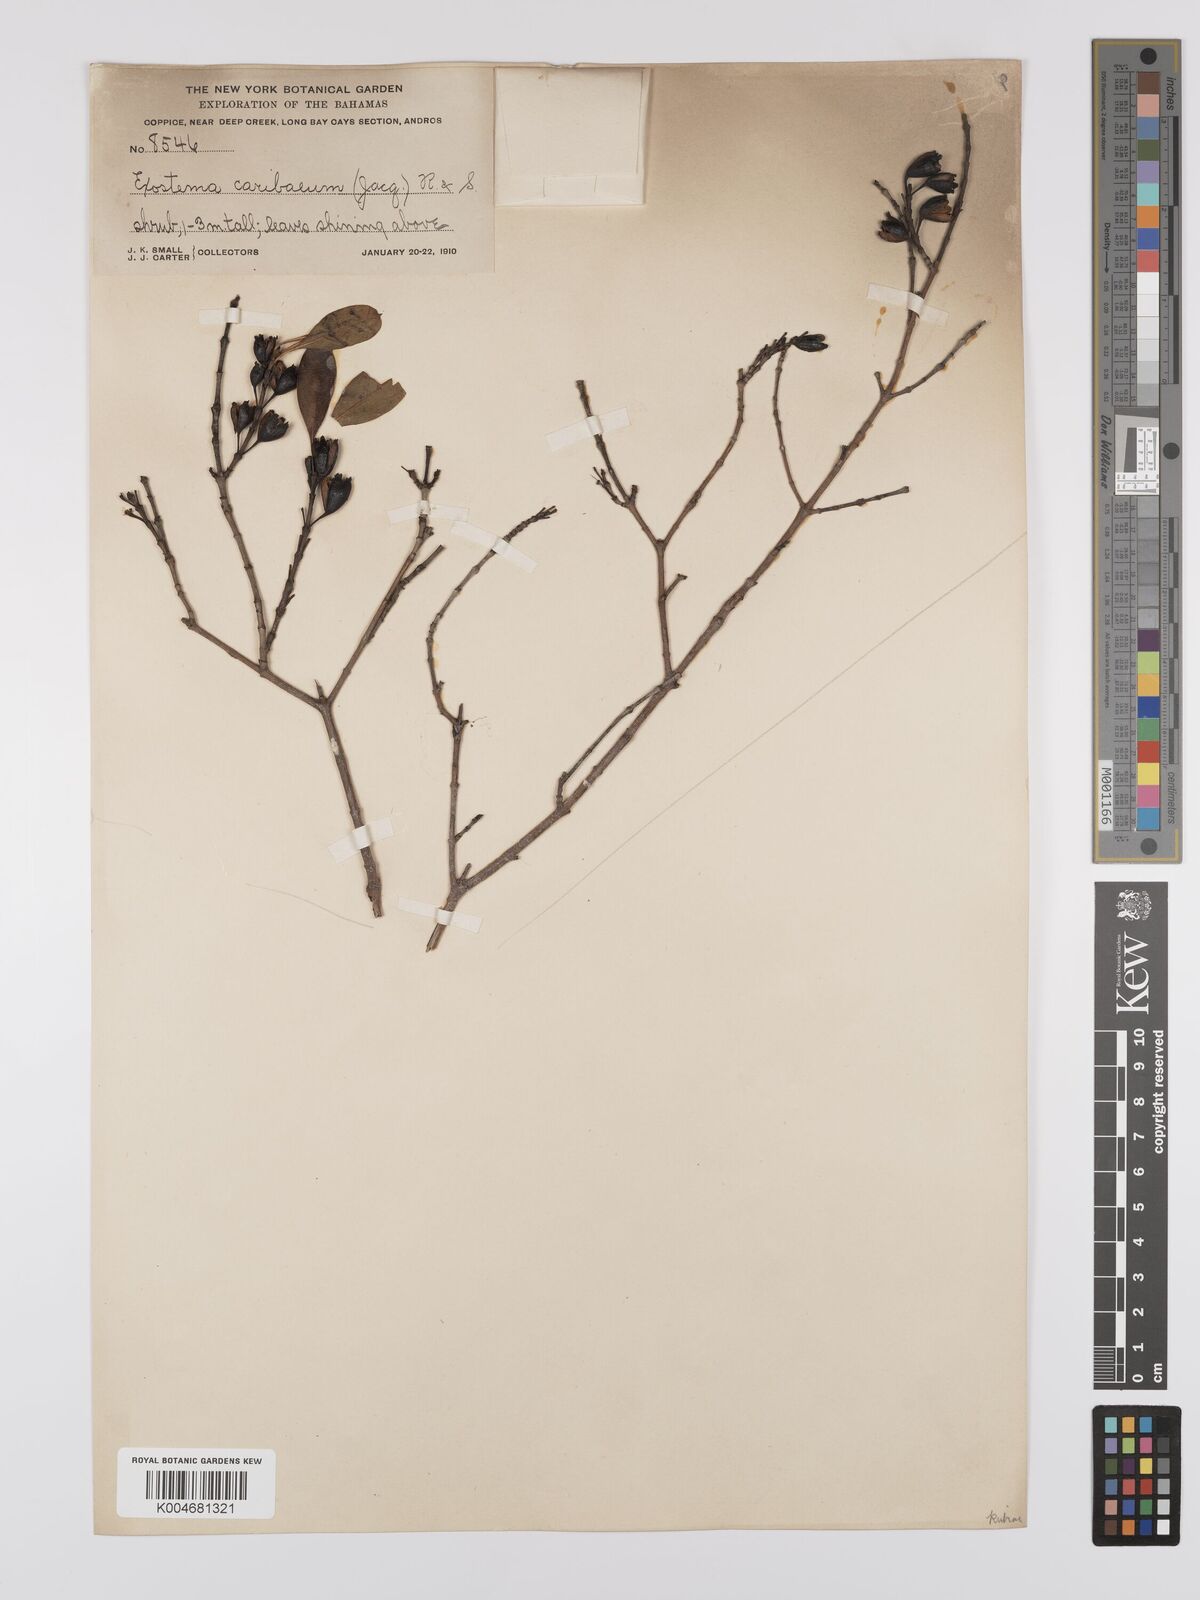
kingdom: Plantae
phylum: Tracheophyta
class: Magnoliopsida
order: Gentianales
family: Rubiaceae
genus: Exostema
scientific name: Exostema caribaeum
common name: Princewood
